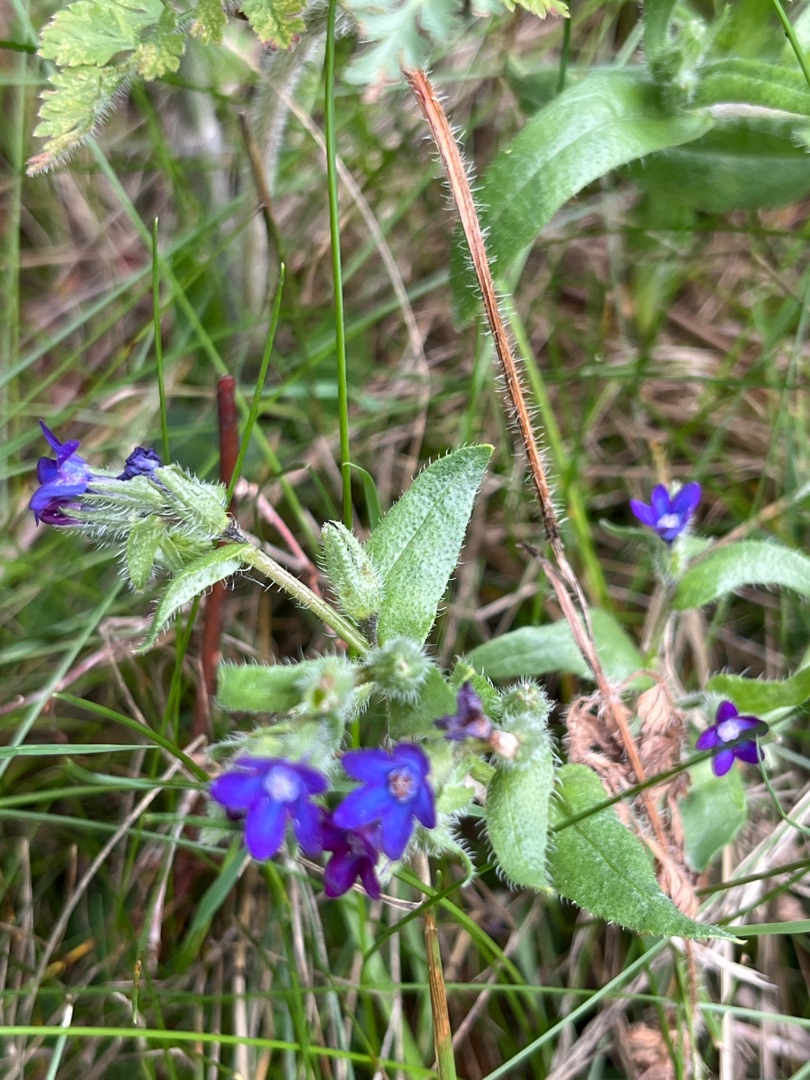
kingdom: Plantae
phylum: Tracheophyta
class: Magnoliopsida
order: Boraginales
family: Boraginaceae
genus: Anchusa
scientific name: Anchusa officinalis
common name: Læge-oksetunge
